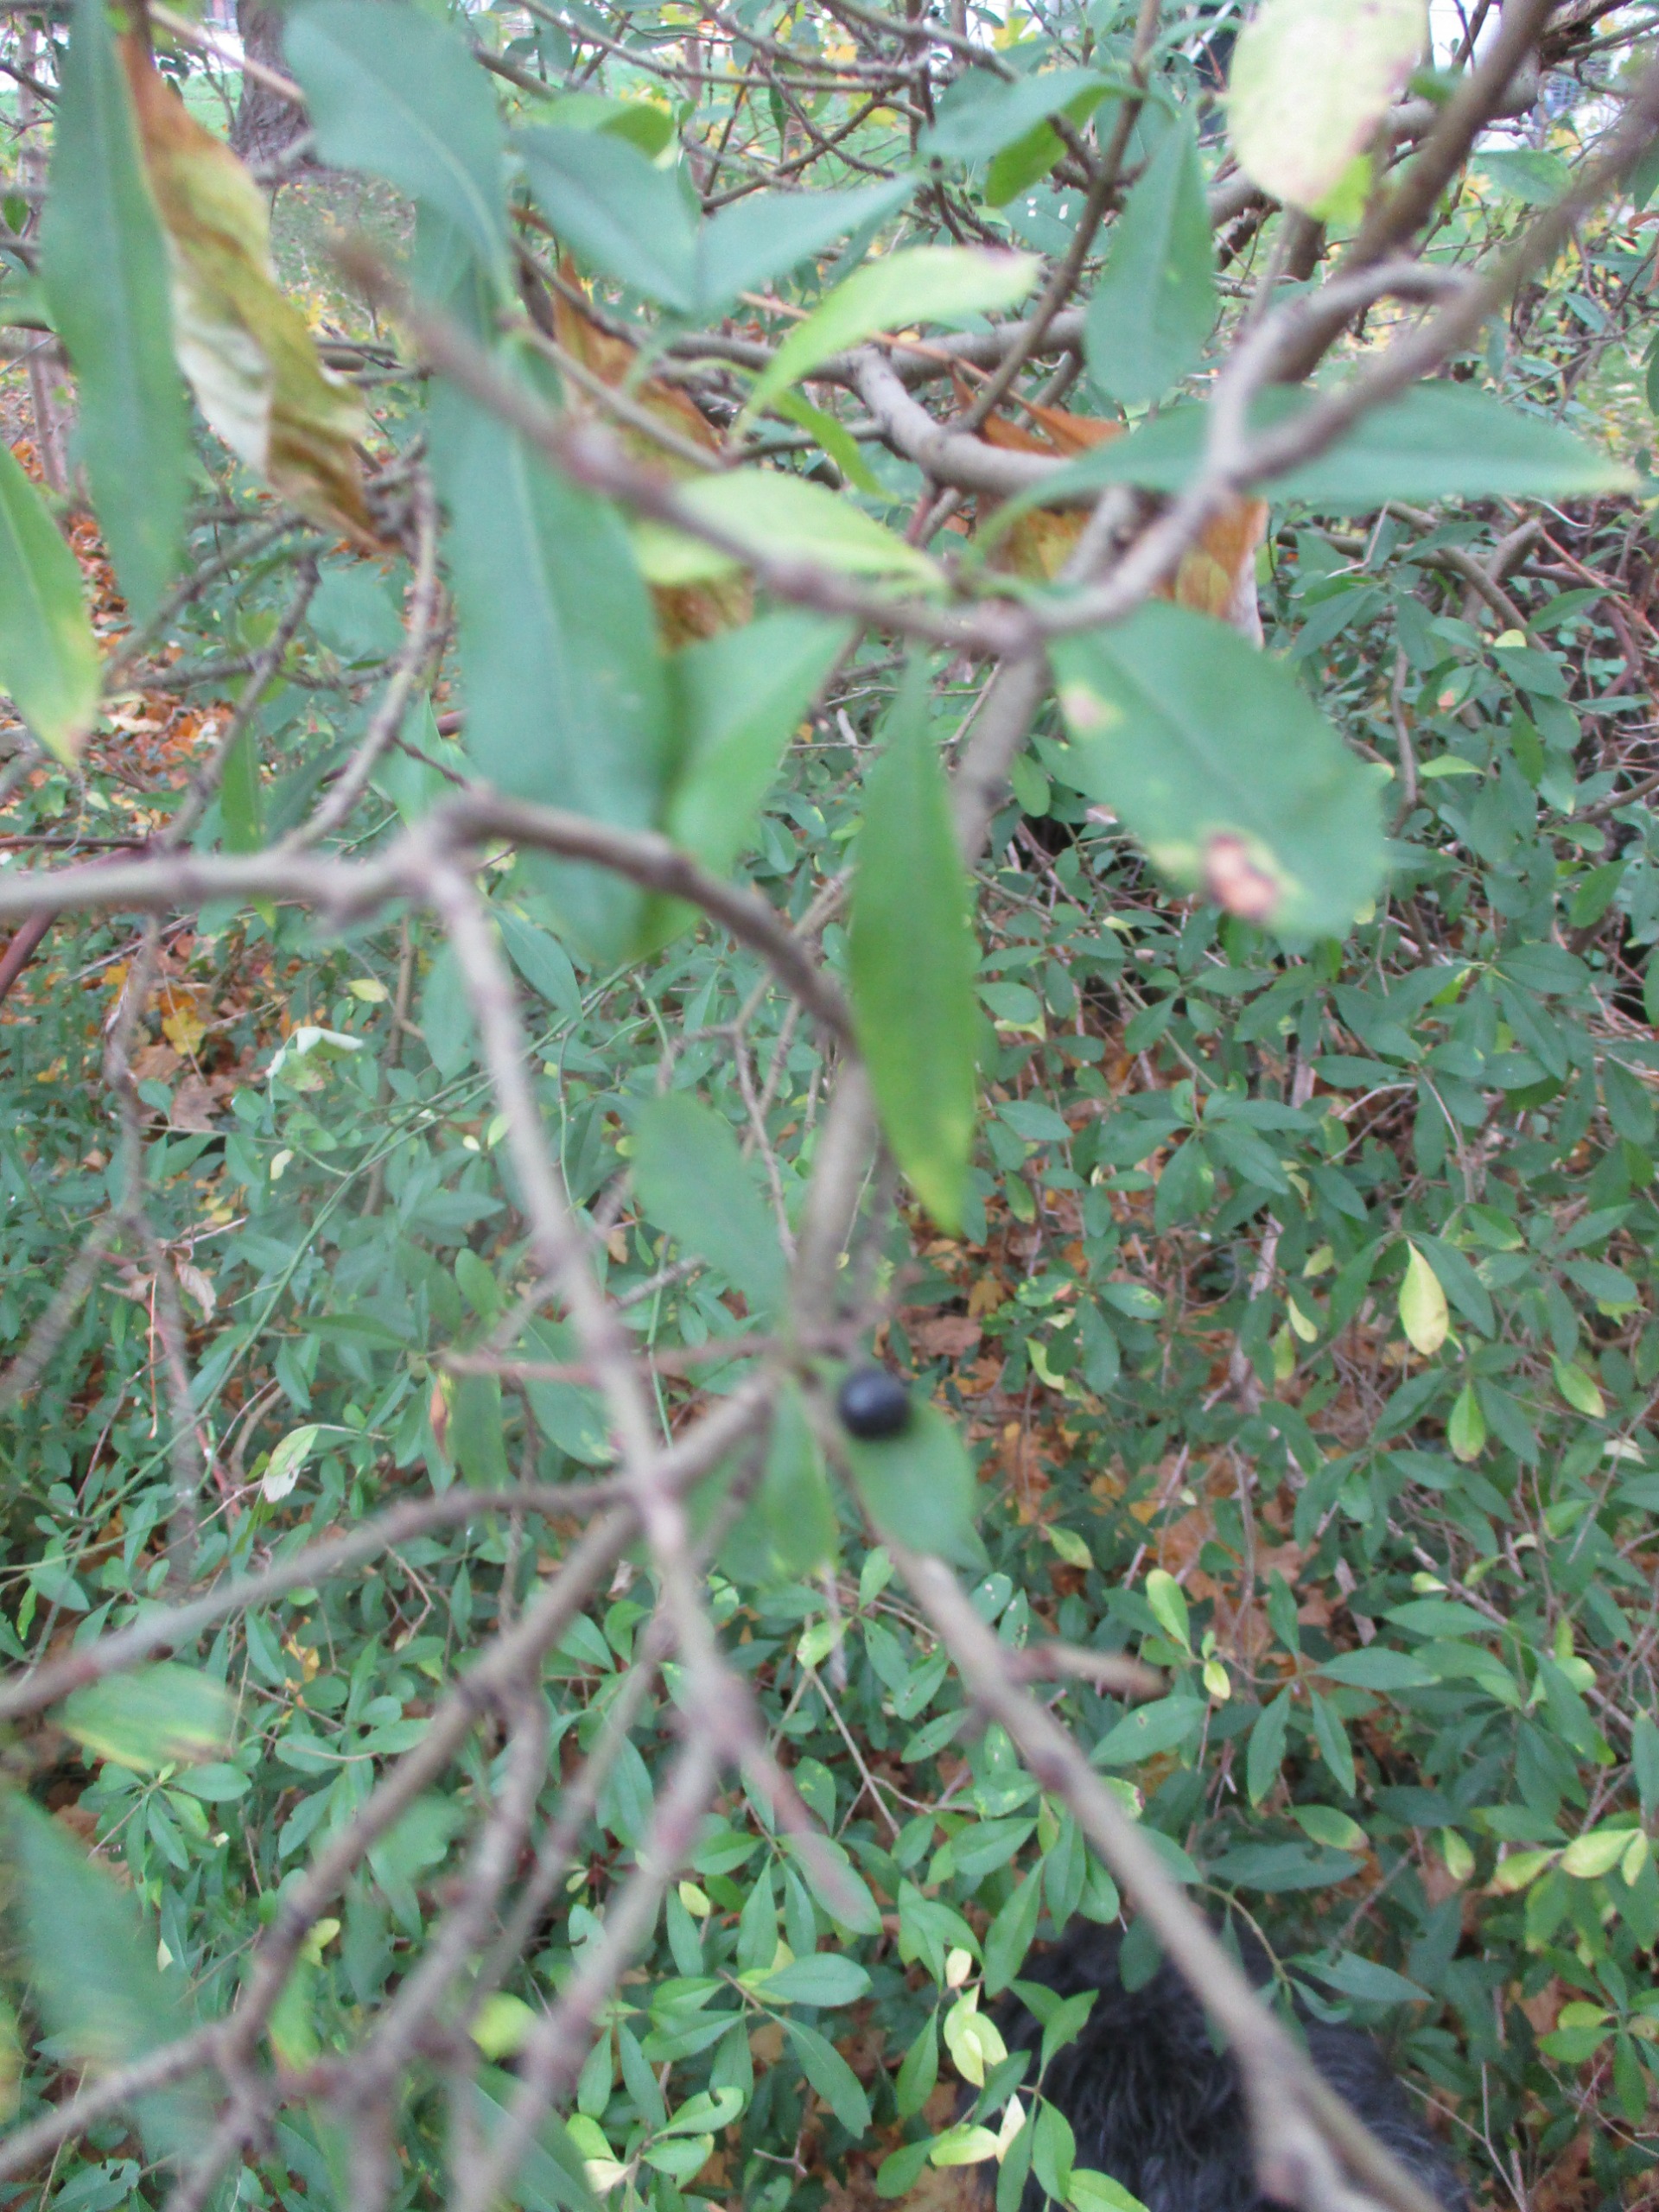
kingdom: Plantae
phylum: Tracheophyta
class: Magnoliopsida
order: Lamiales
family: Oleaceae
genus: Ligustrum
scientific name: Ligustrum vulgare
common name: Liguster
